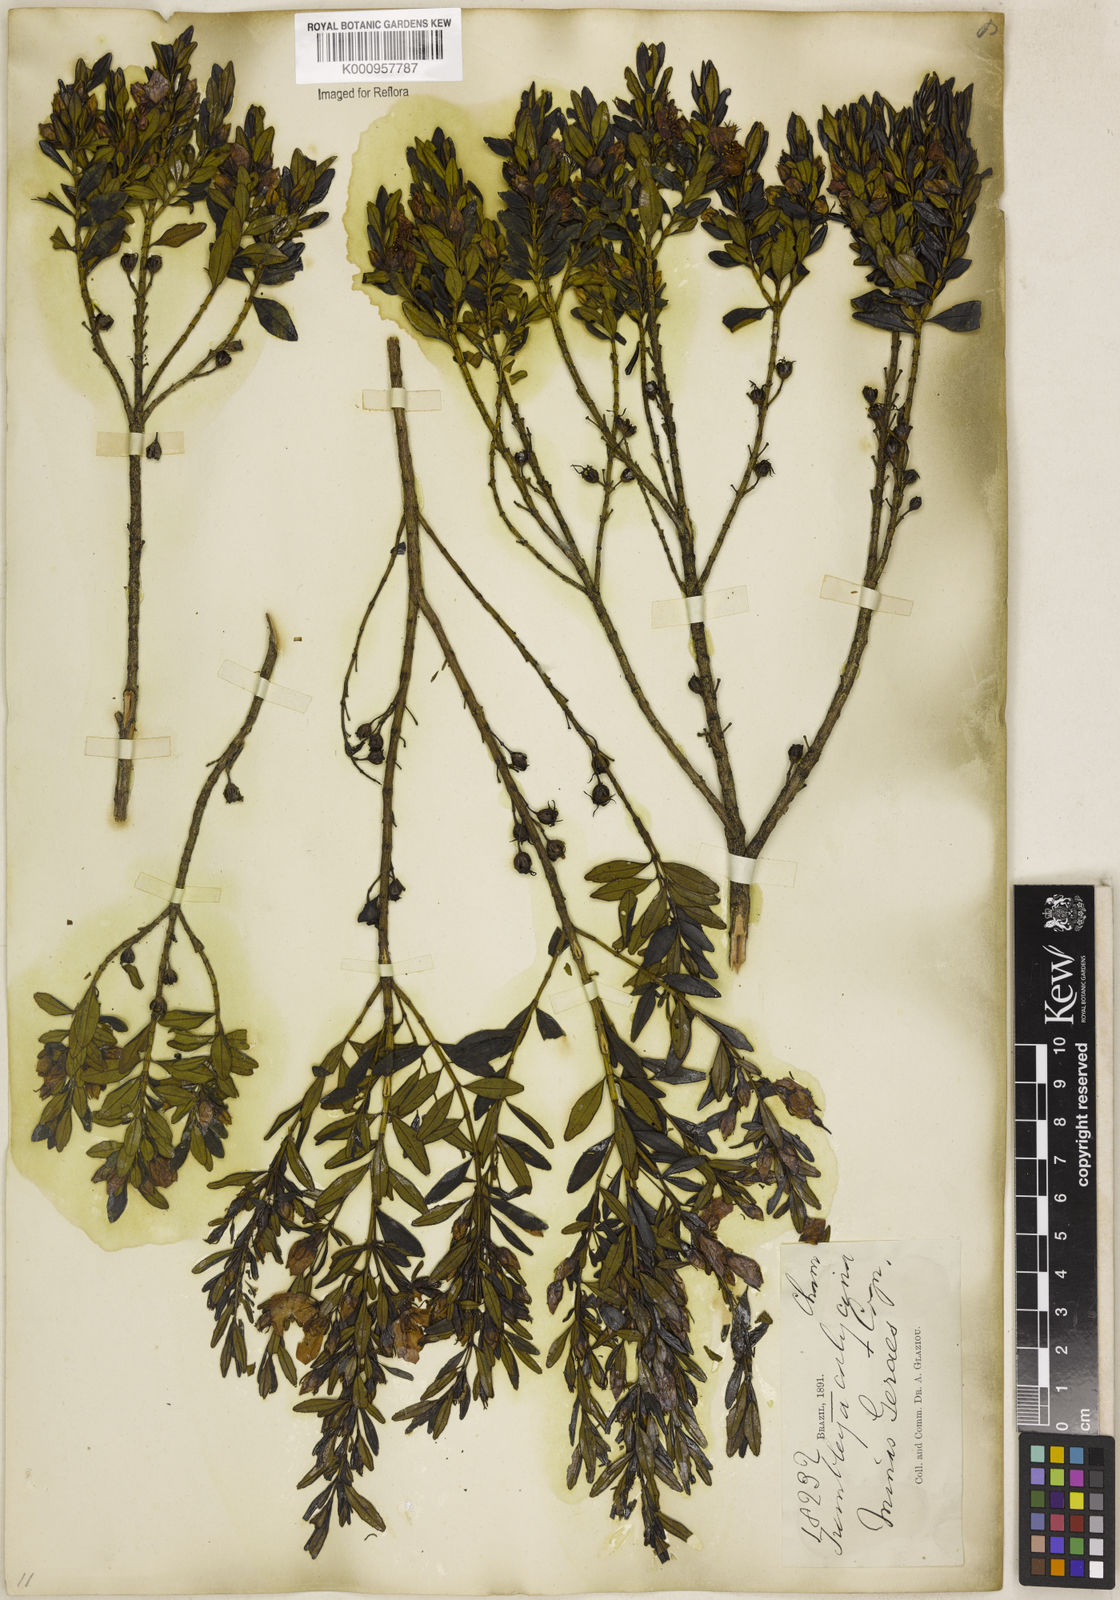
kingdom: Plantae
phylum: Tracheophyta
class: Magnoliopsida
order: Myrtales
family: Melastomataceae
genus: Microlicia
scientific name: Microlicia calycina
